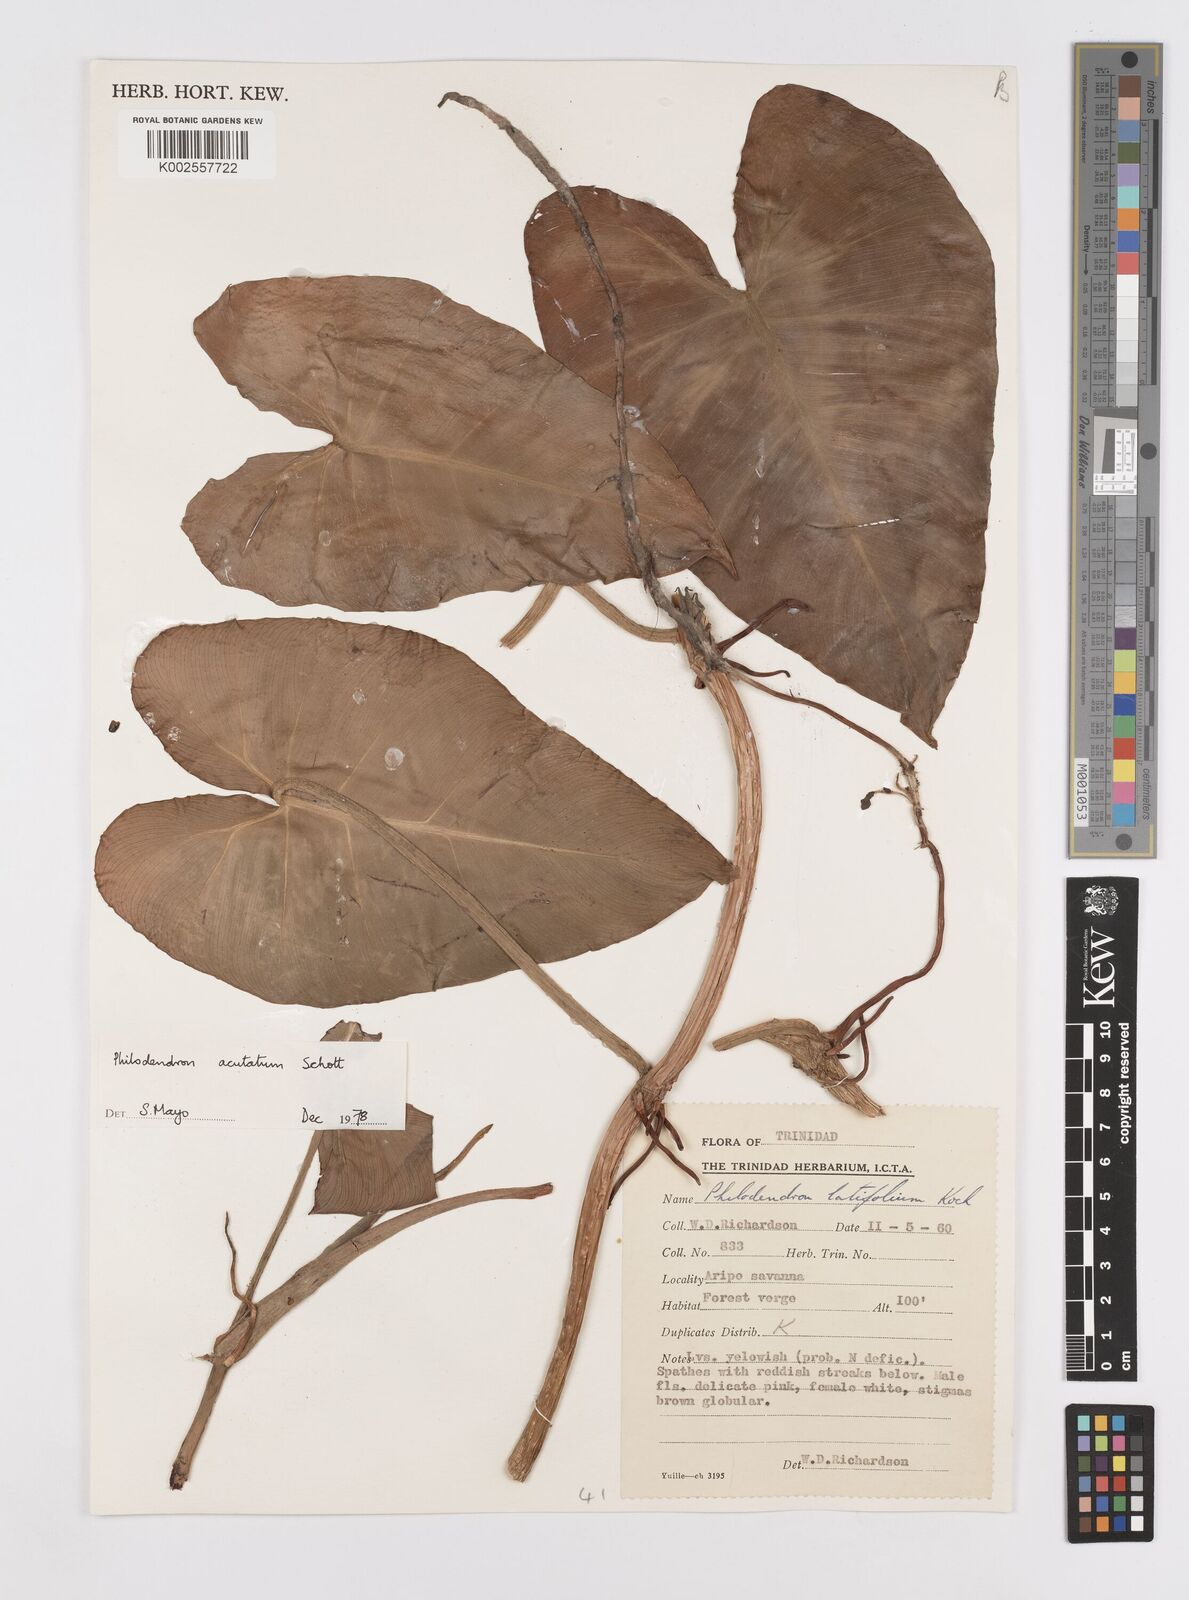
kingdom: Plantae
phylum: Tracheophyta
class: Liliopsida
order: Alismatales
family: Araceae
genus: Philodendron
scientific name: Philodendron quinquenervium
